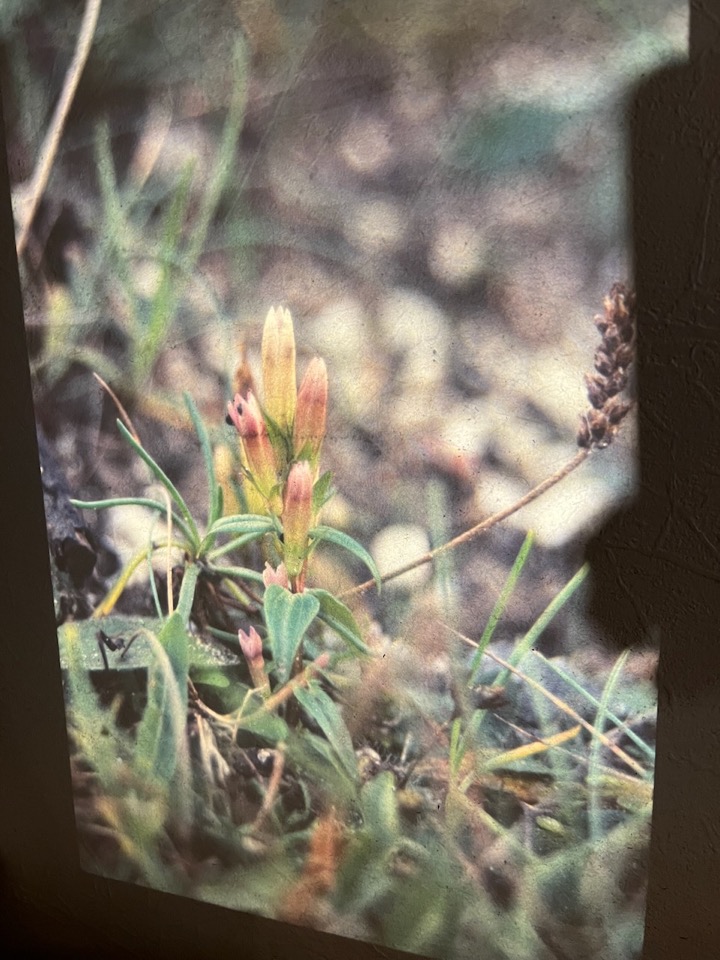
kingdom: Plantae
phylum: Tracheophyta
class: Magnoliopsida
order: Gentianales
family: Gentianaceae
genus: Gentianella
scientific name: Gentianella amarella
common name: Smalbægret ensian
